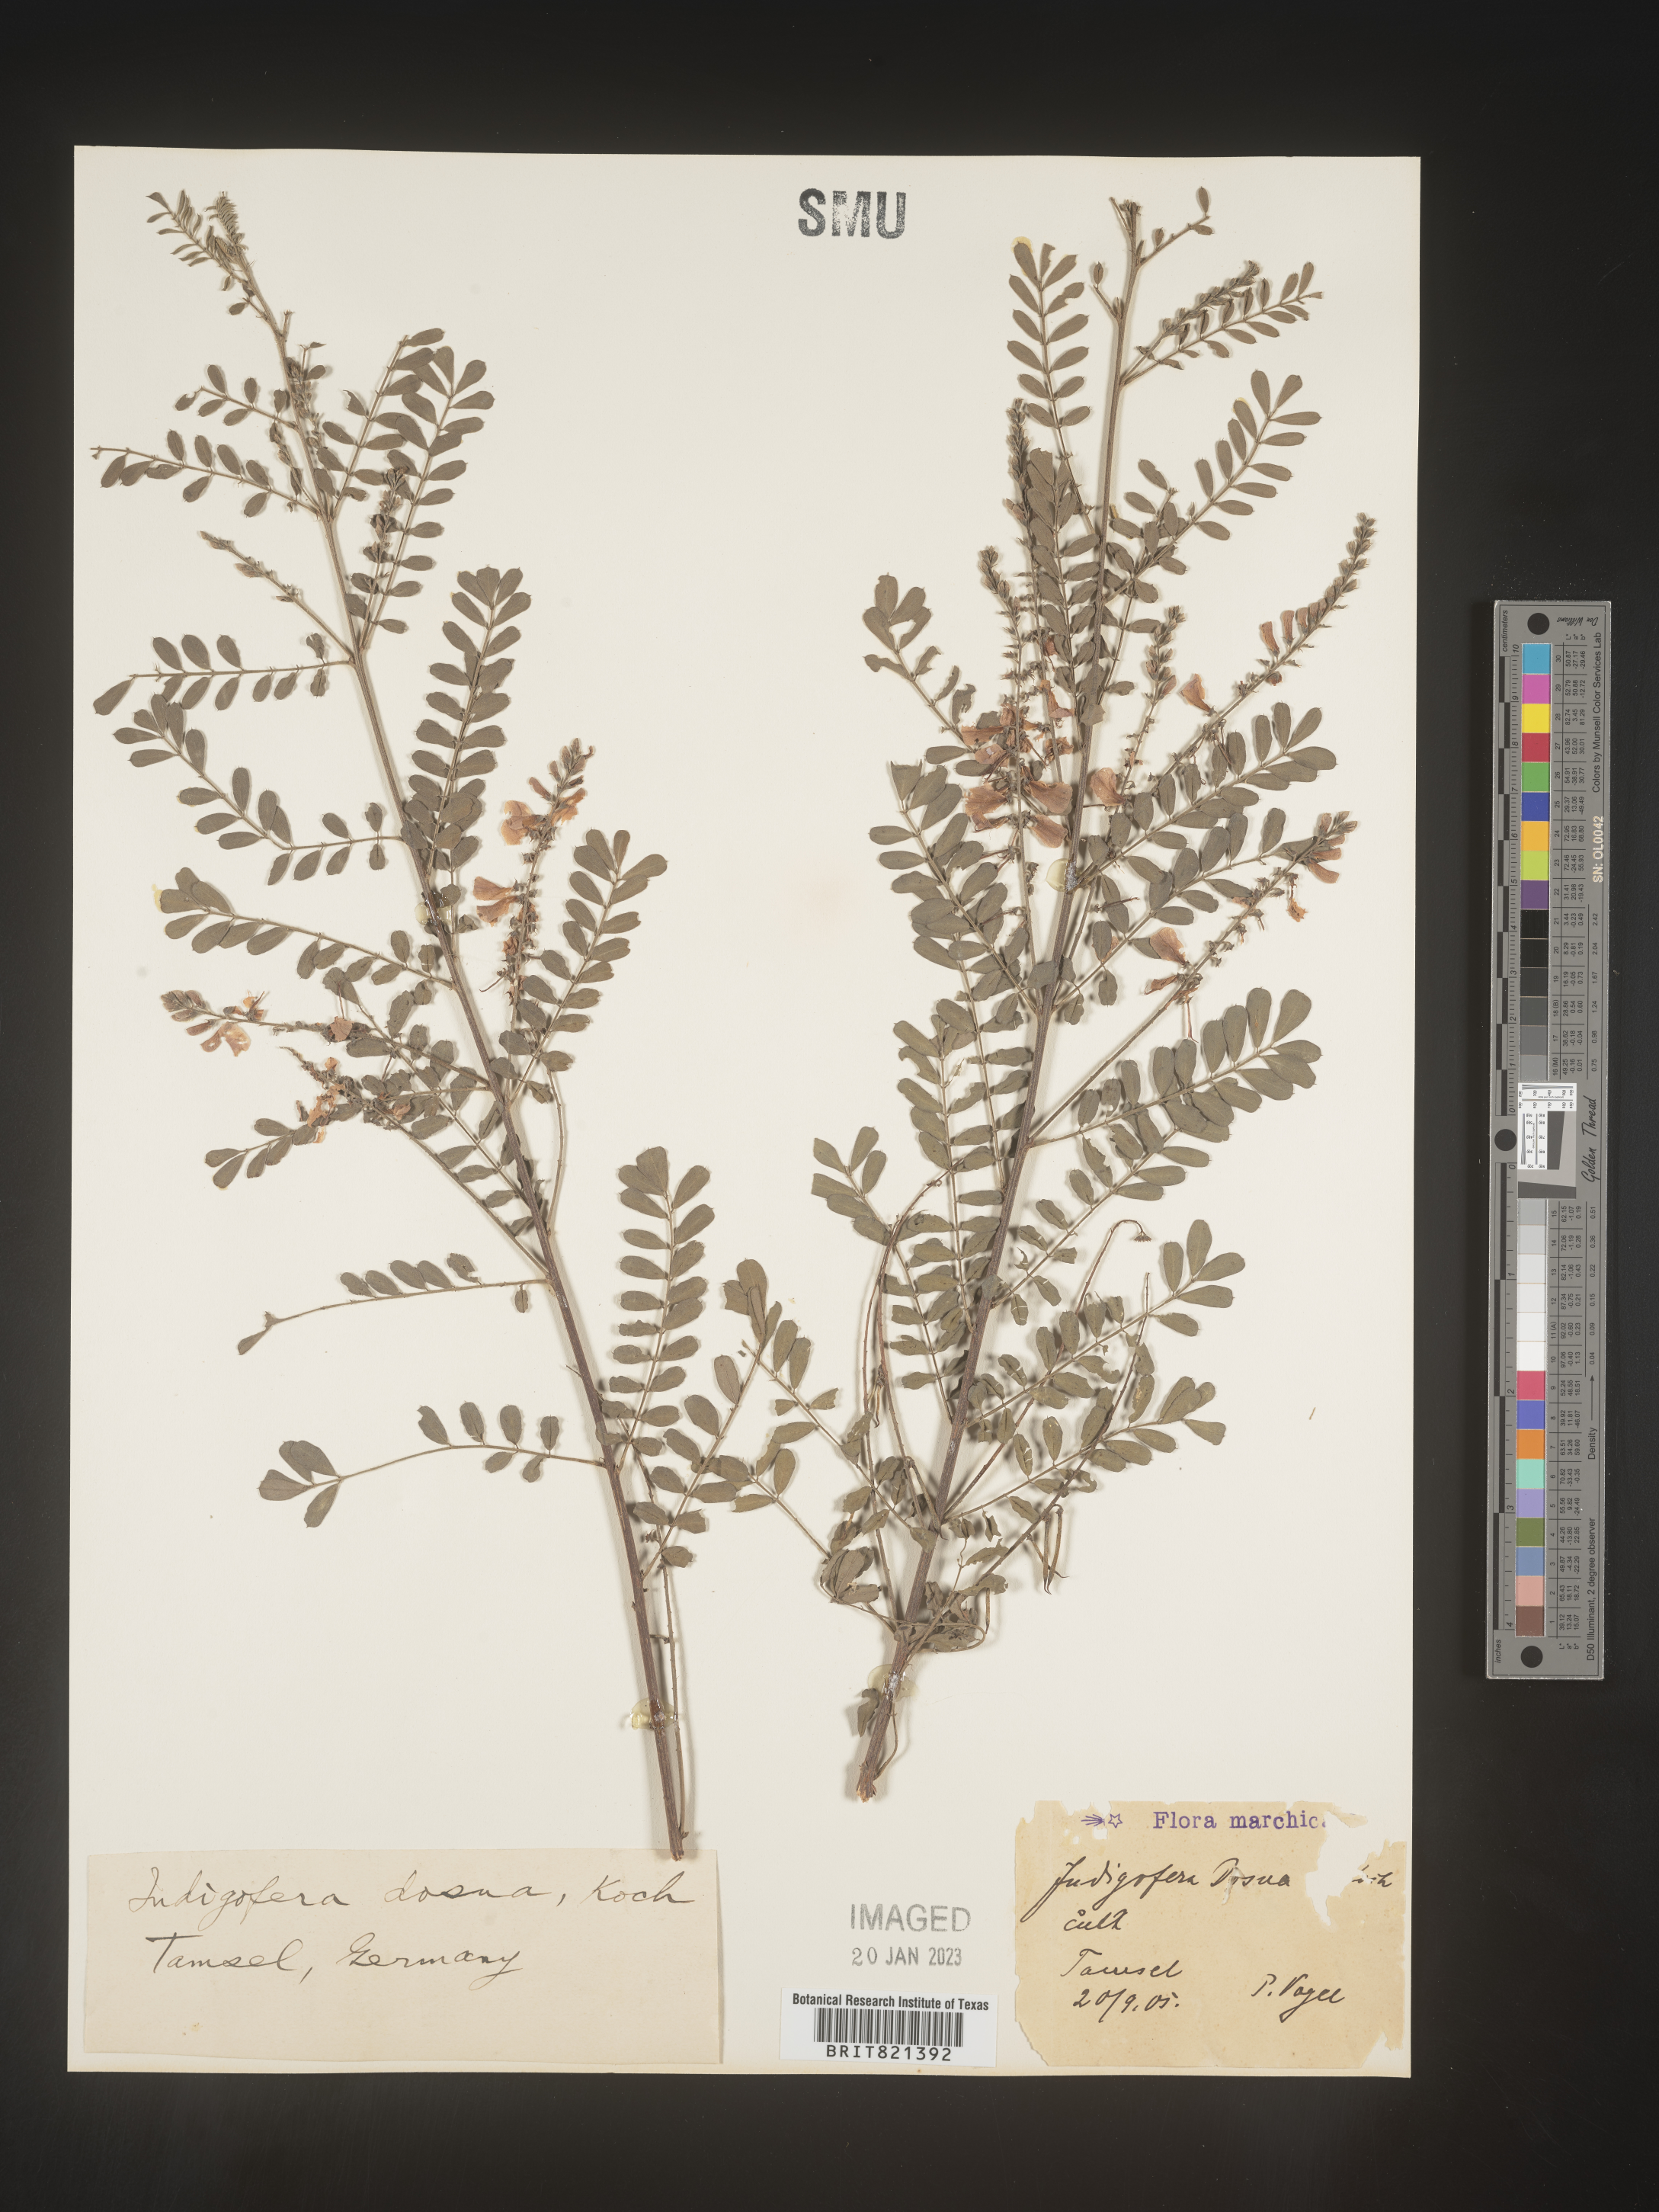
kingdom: Plantae
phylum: Tracheophyta
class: Magnoliopsida
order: Fabales
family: Fabaceae
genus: Indigofera
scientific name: Indigofera
